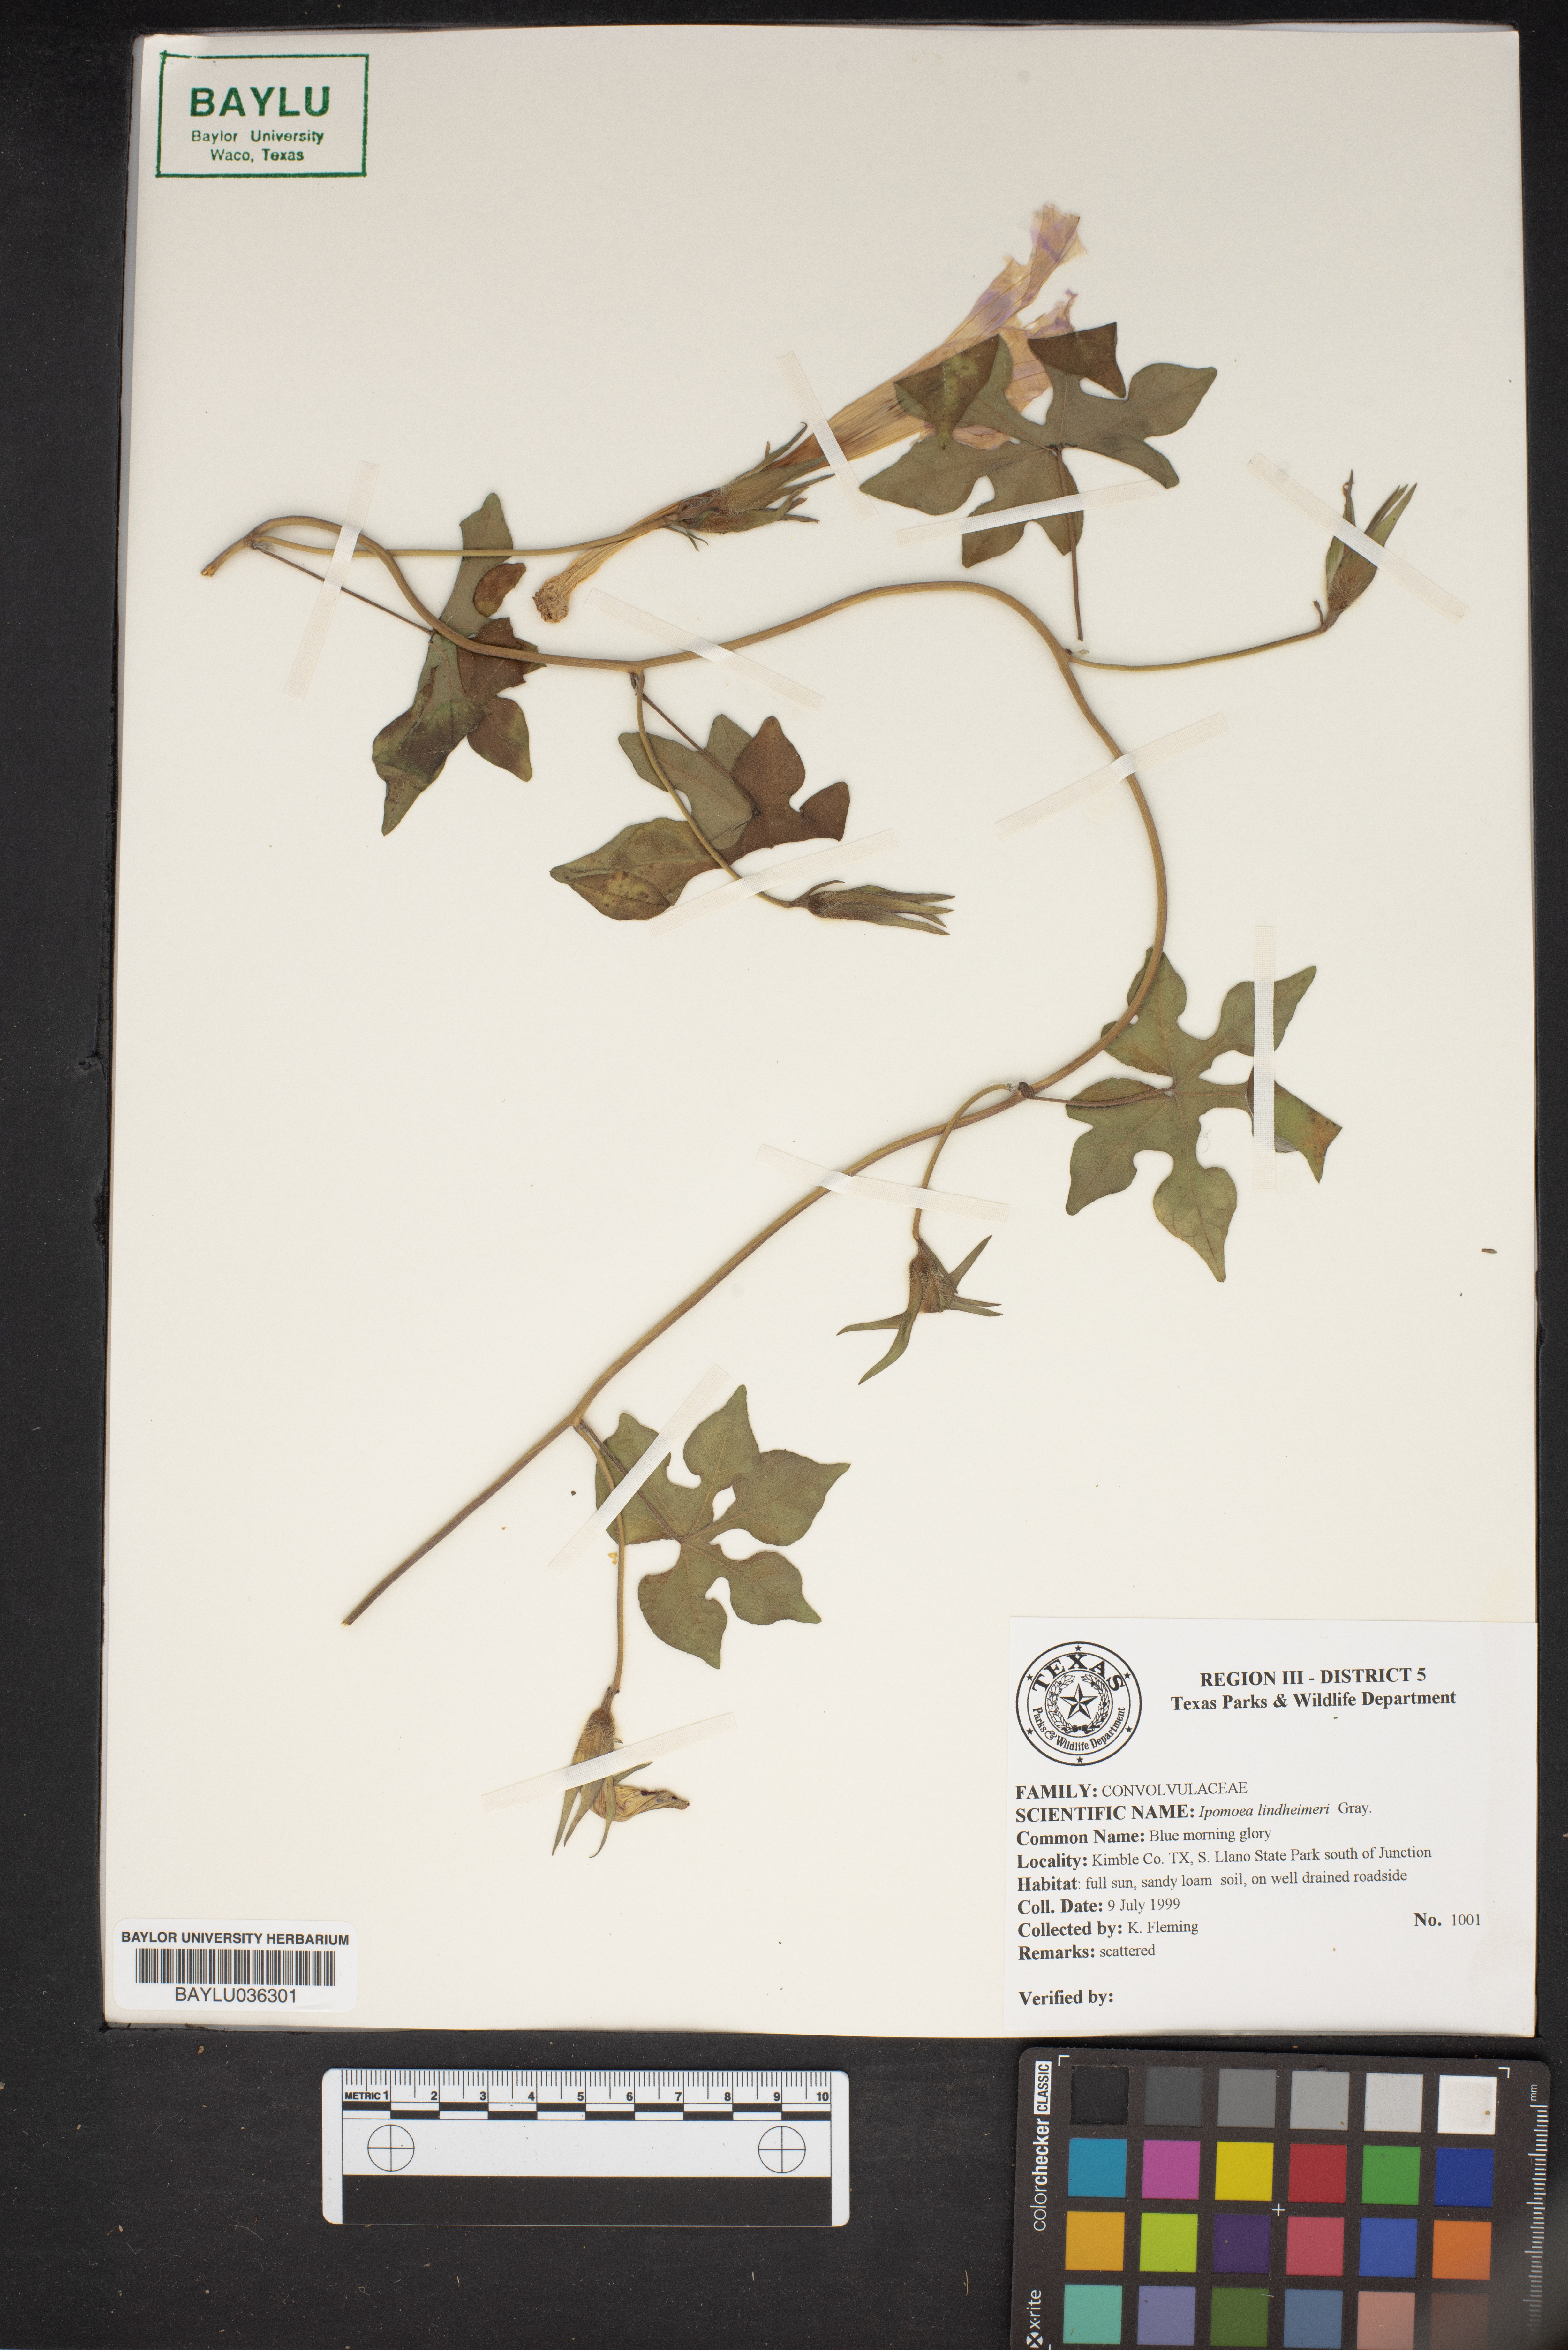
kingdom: Plantae
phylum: Tracheophyta
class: Magnoliopsida
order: Solanales
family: Convolvulaceae
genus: Ipomoea
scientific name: Ipomoea lindheimeri
